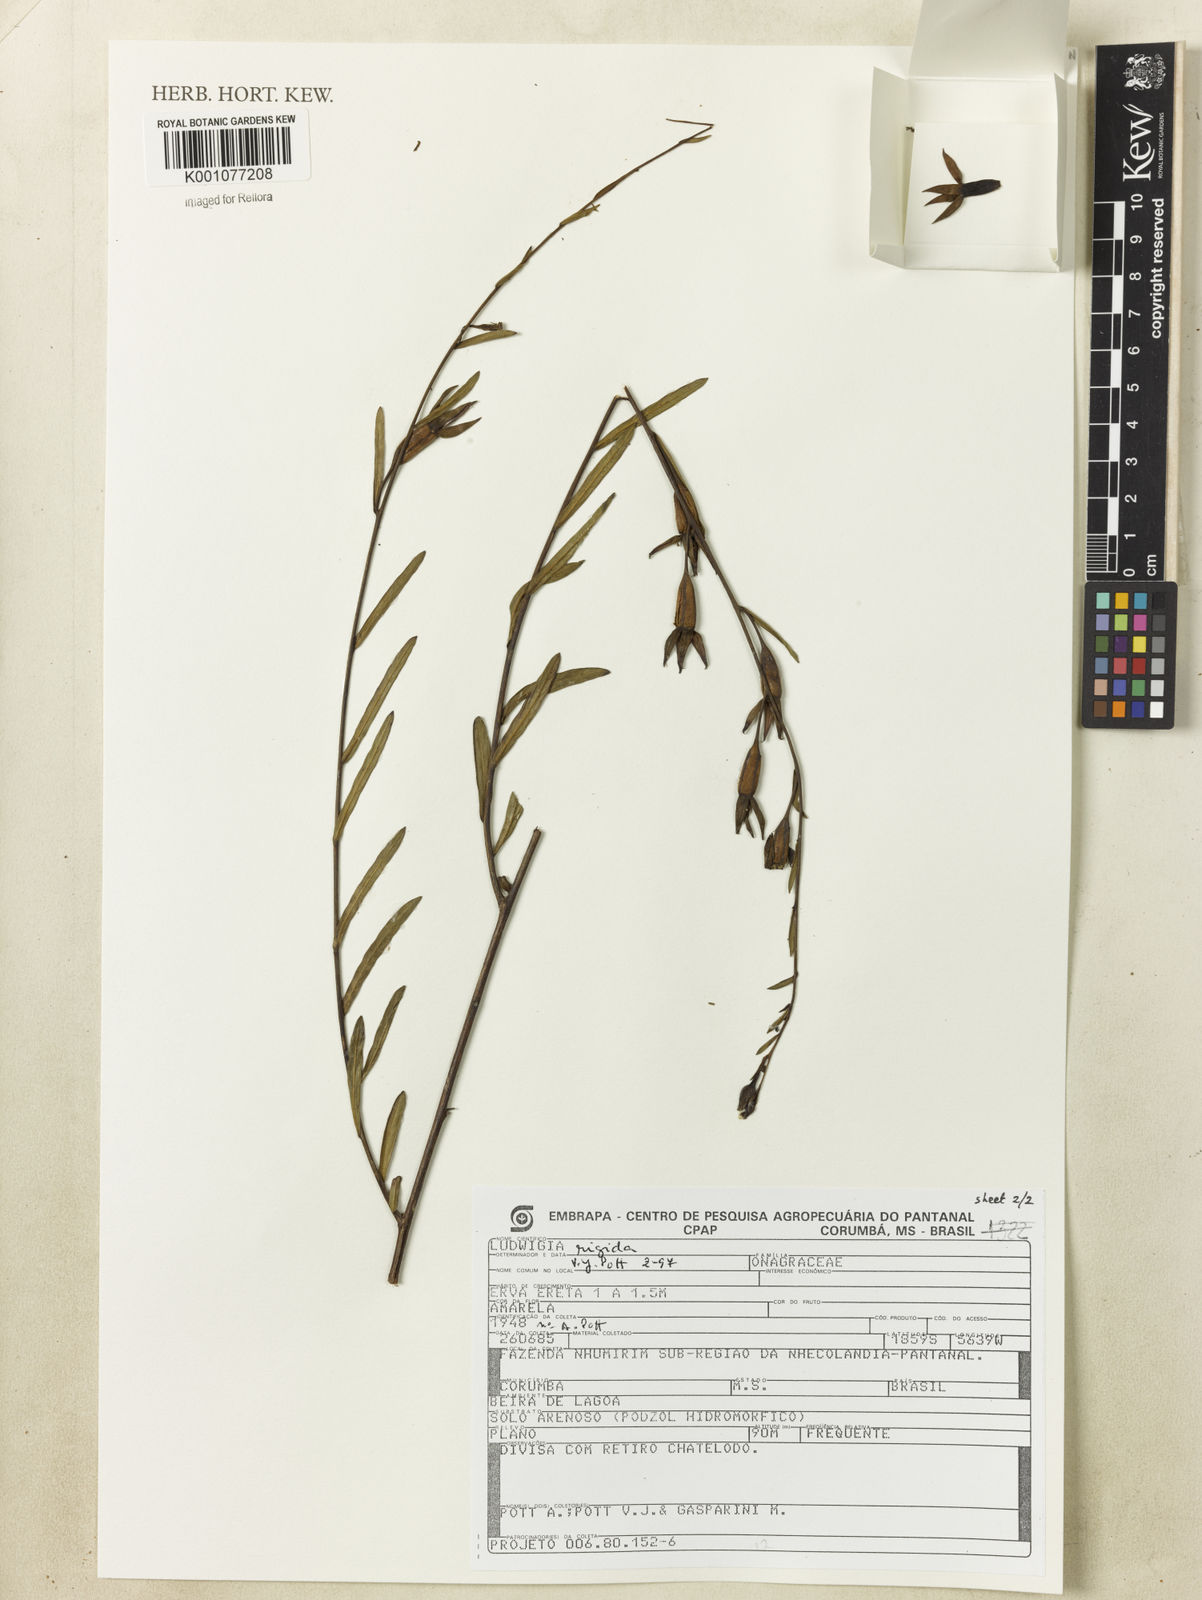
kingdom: Plantae
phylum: Tracheophyta
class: Magnoliopsida
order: Myrtales
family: Onagraceae
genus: Ludwigia
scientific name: Ludwigia rigida
